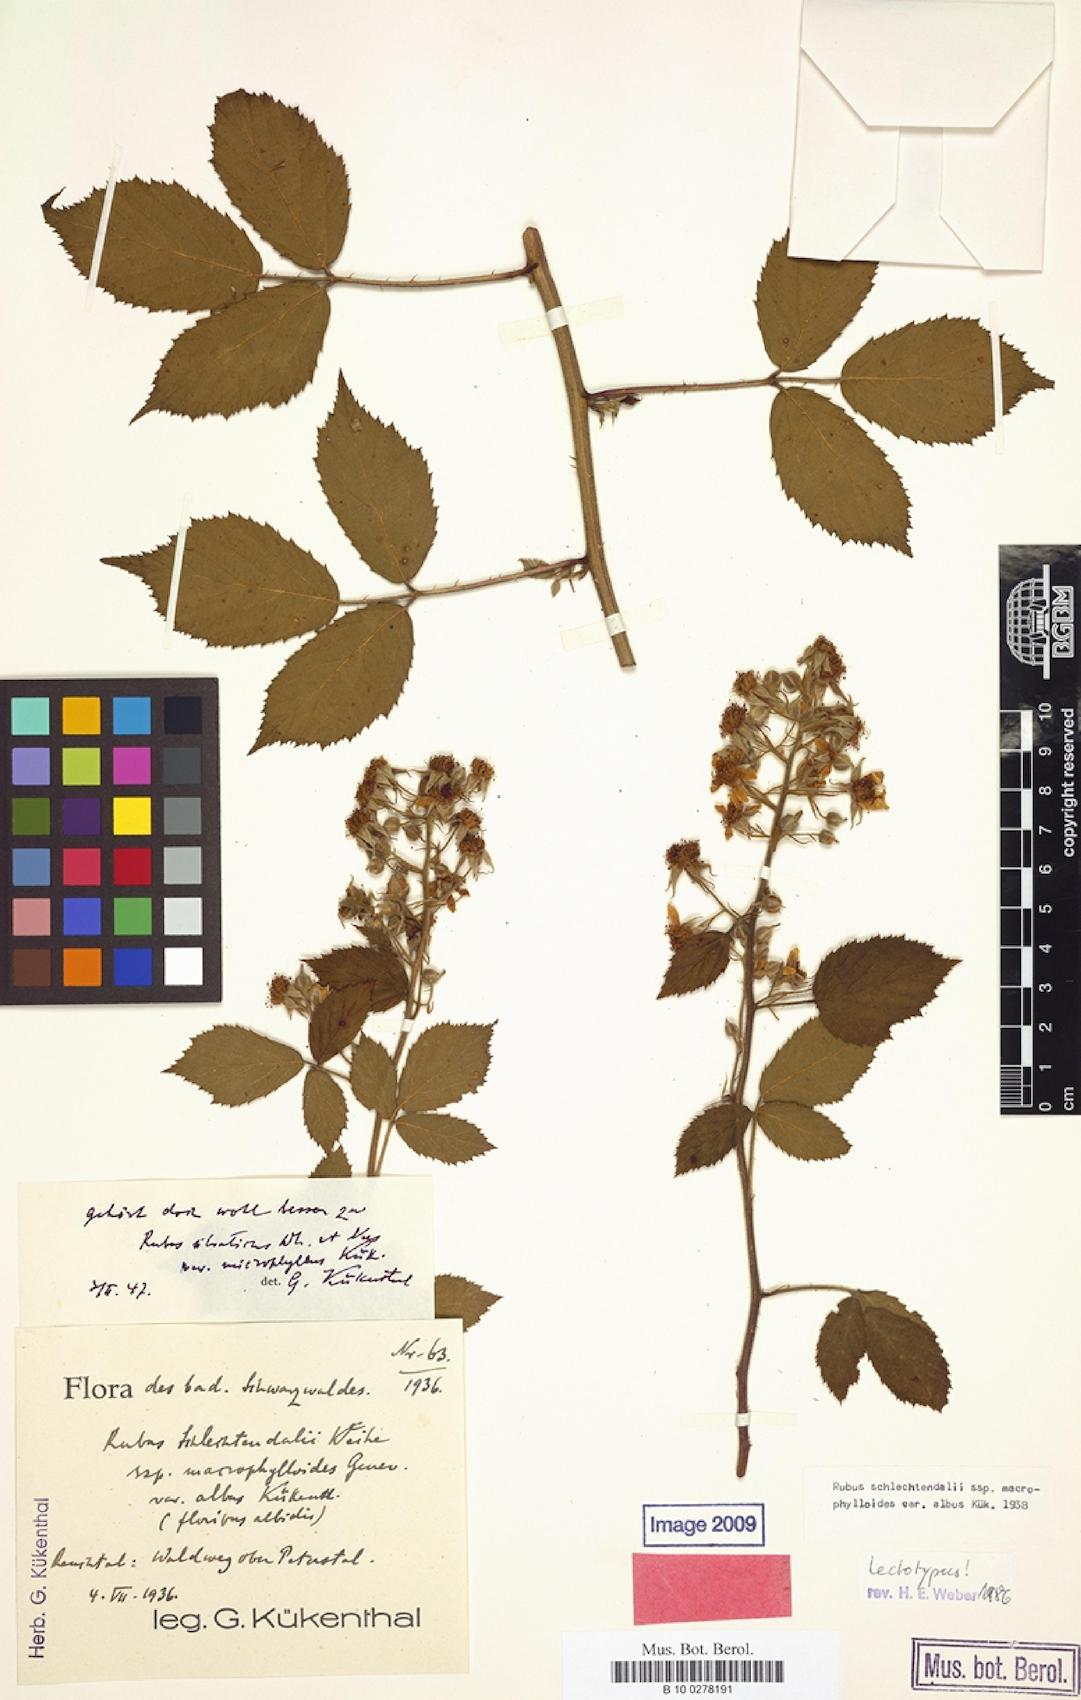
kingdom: Plantae
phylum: Tracheophyta
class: Magnoliopsida
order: Rosales
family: Rosaceae
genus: Rubus
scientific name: Rubus silvaticus
